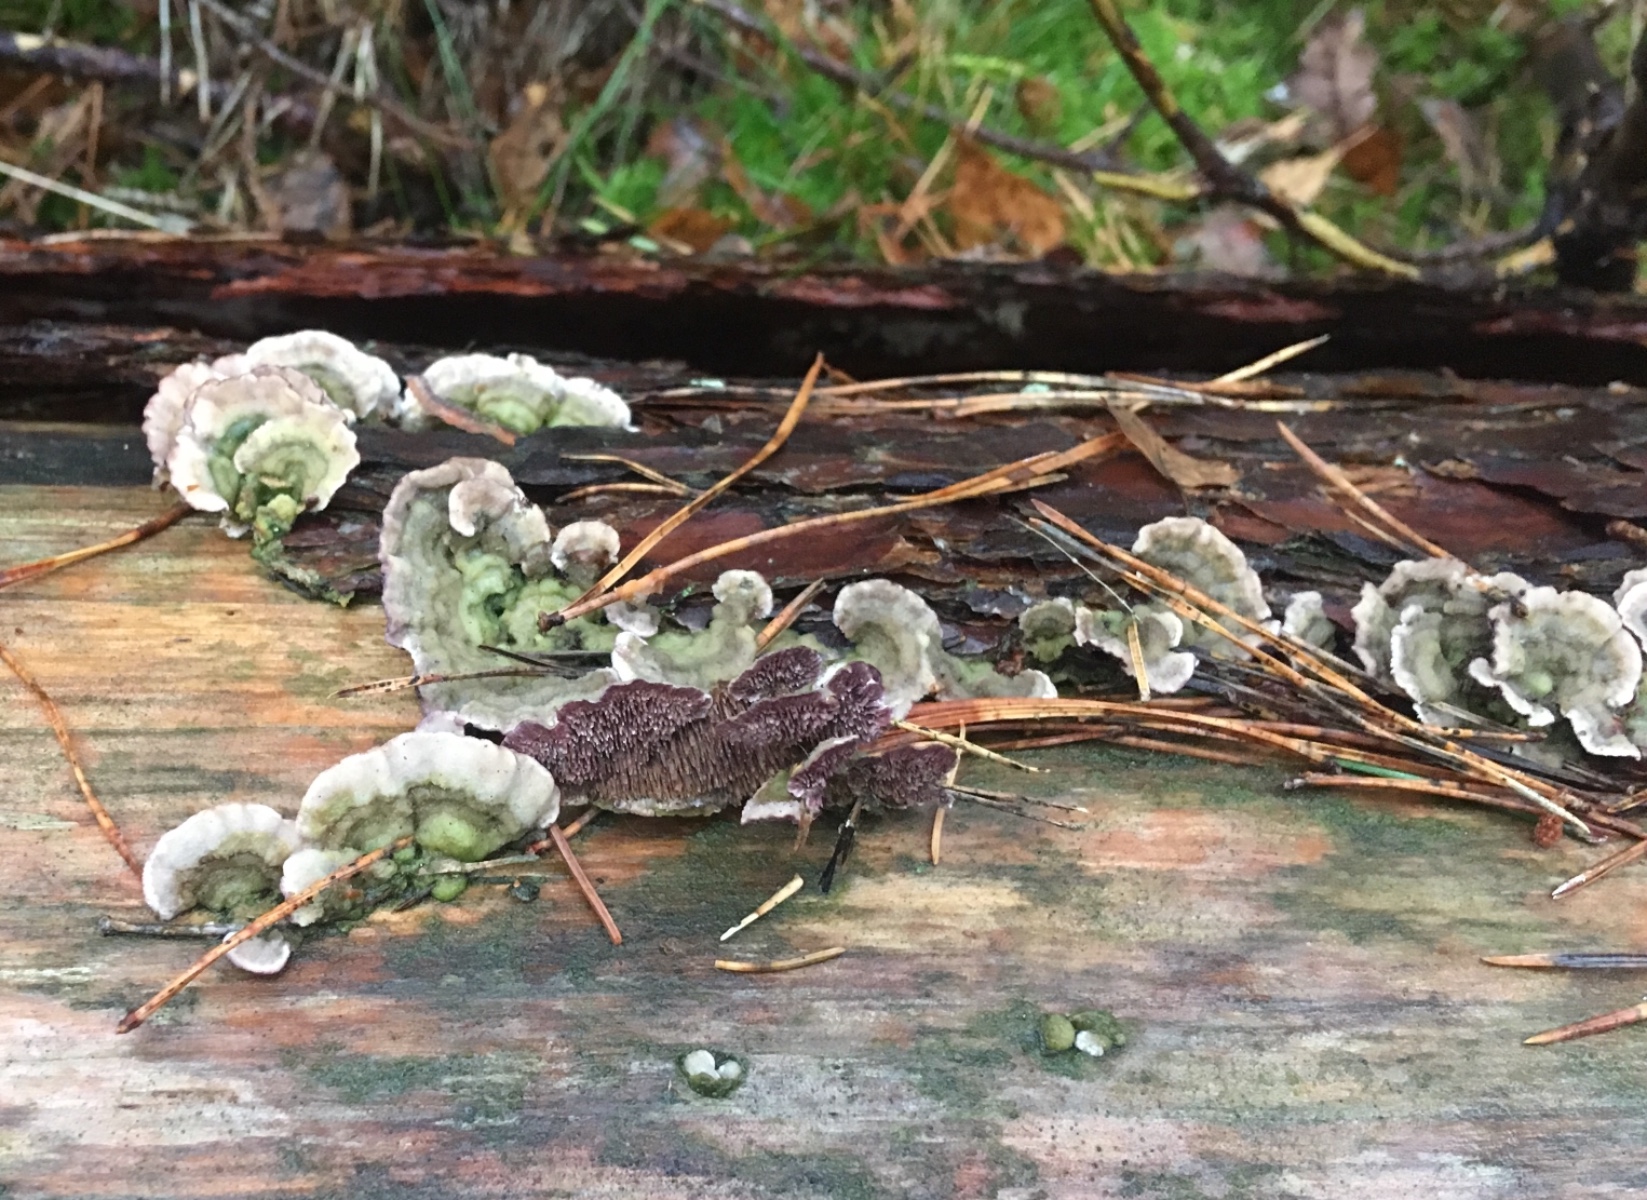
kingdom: Fungi
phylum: Basidiomycota
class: Agaricomycetes
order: Hymenochaetales
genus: Trichaptum
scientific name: Trichaptum fuscoviolaceum
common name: tandet violporesvamp
